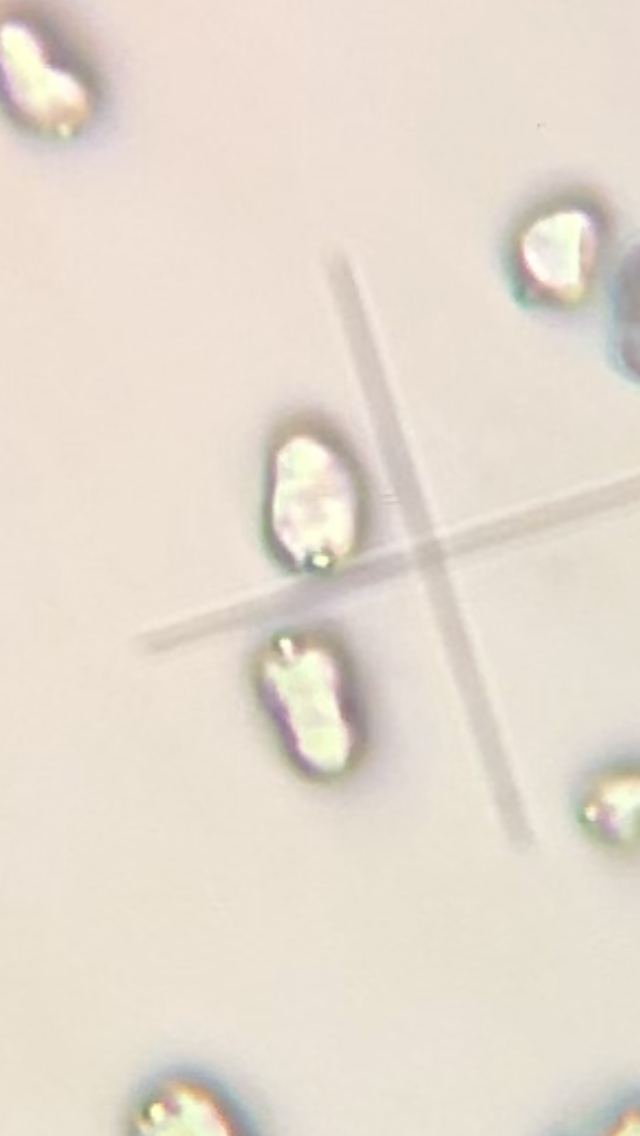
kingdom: Fungi
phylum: Basidiomycota
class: Agaricomycetes
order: Agaricales
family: Hygrophoraceae
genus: Hygrocybe
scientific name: Hygrocybe miniata
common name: mønje-vokshat
